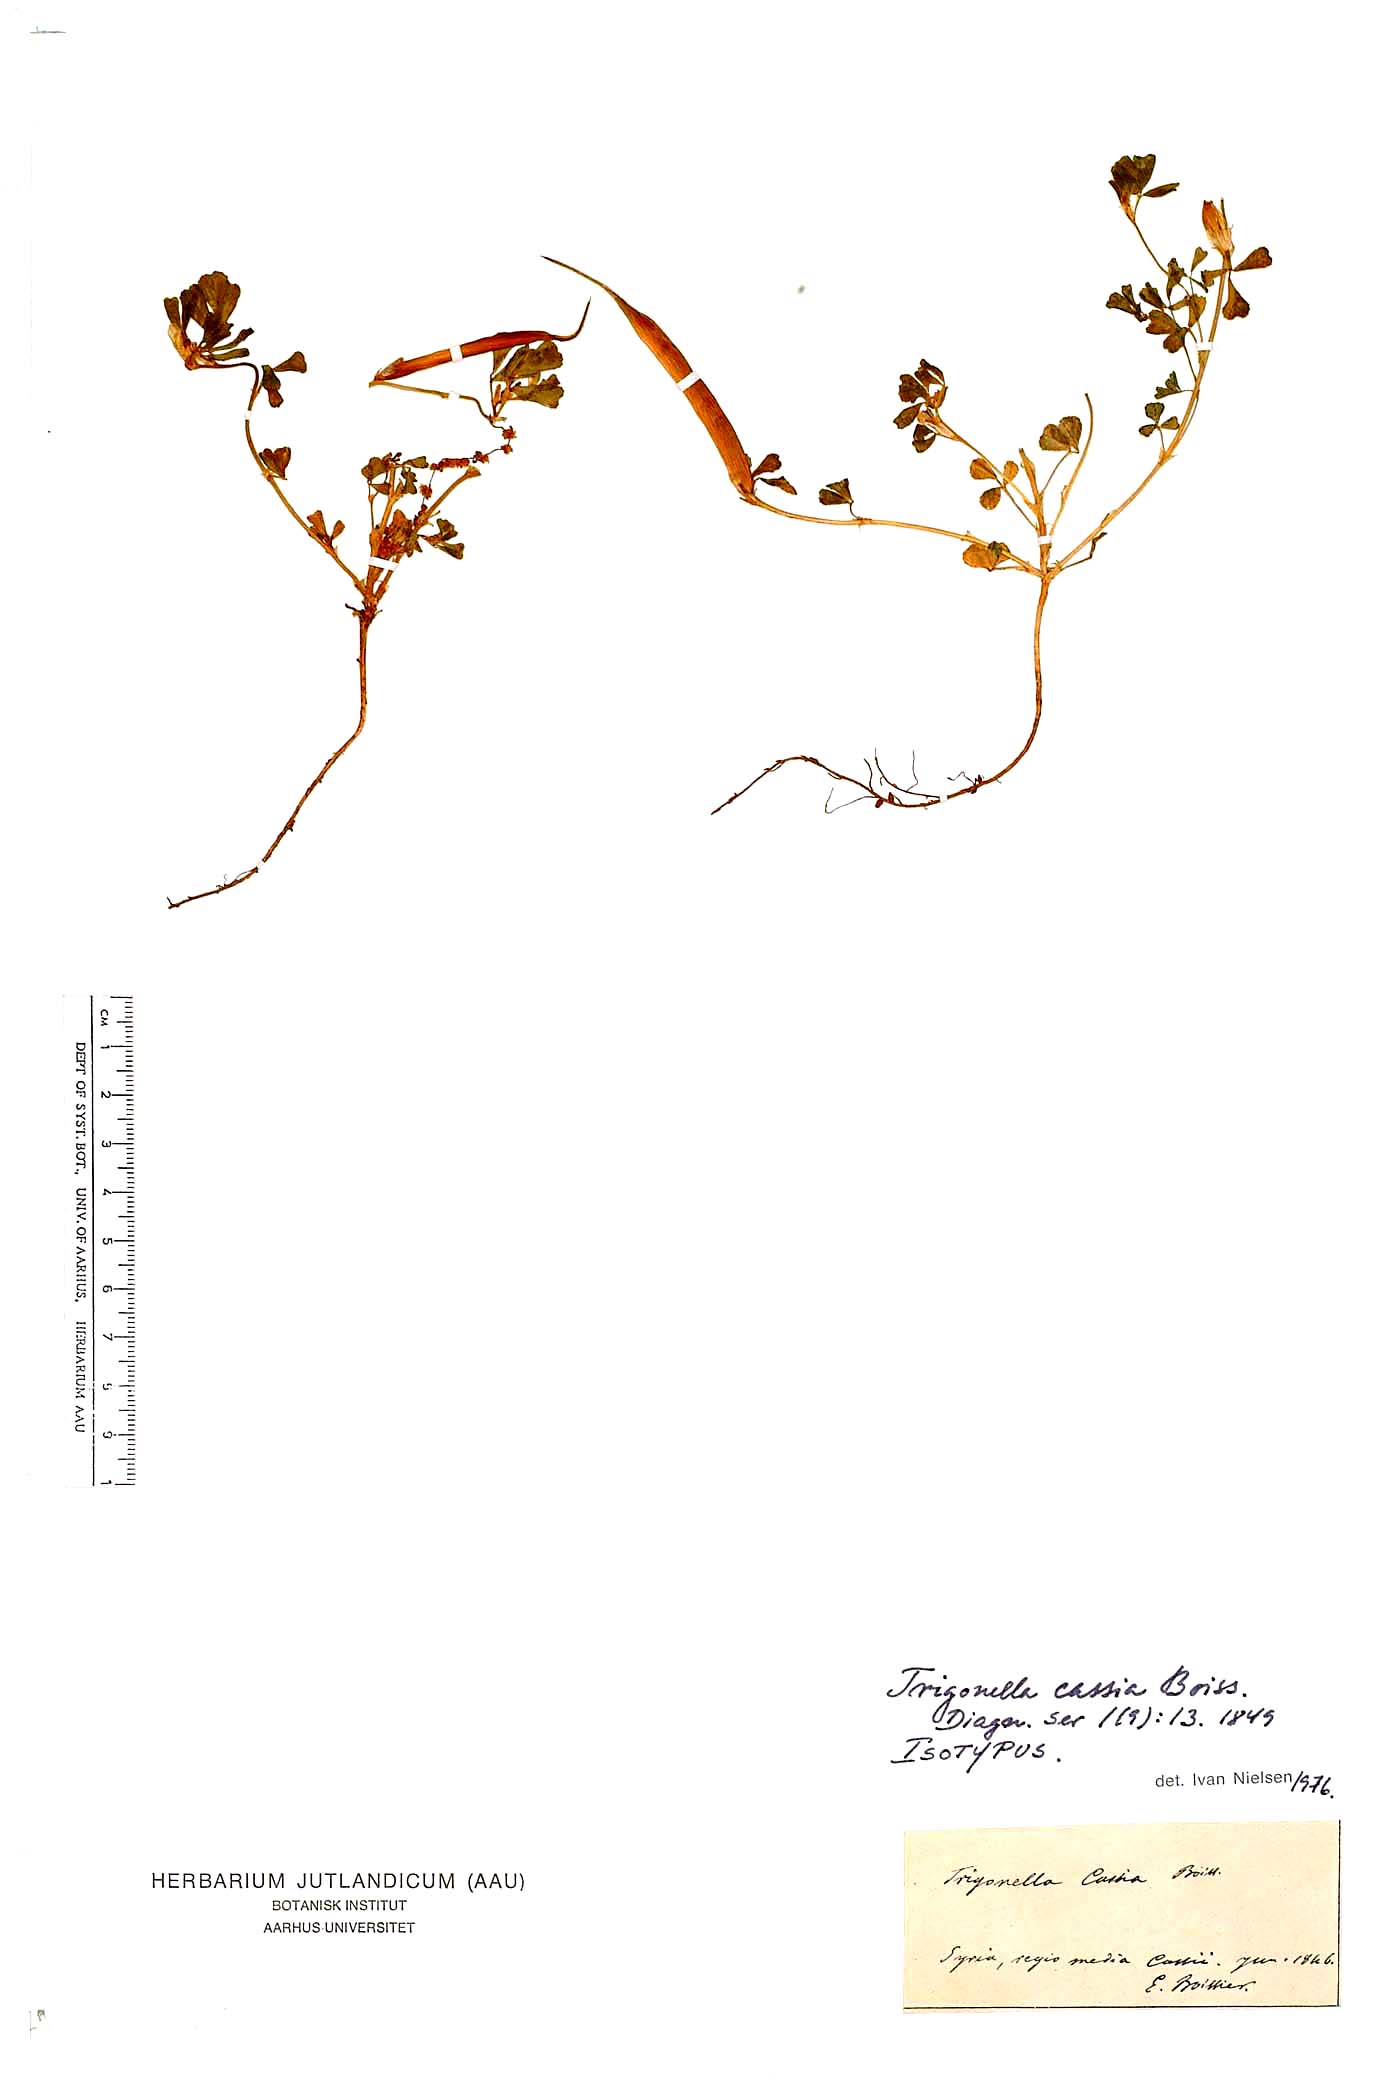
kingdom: Plantae
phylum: Tracheophyta
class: Magnoliopsida
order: Fabales
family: Fabaceae
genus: Trigonella
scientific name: Trigonella cassia
